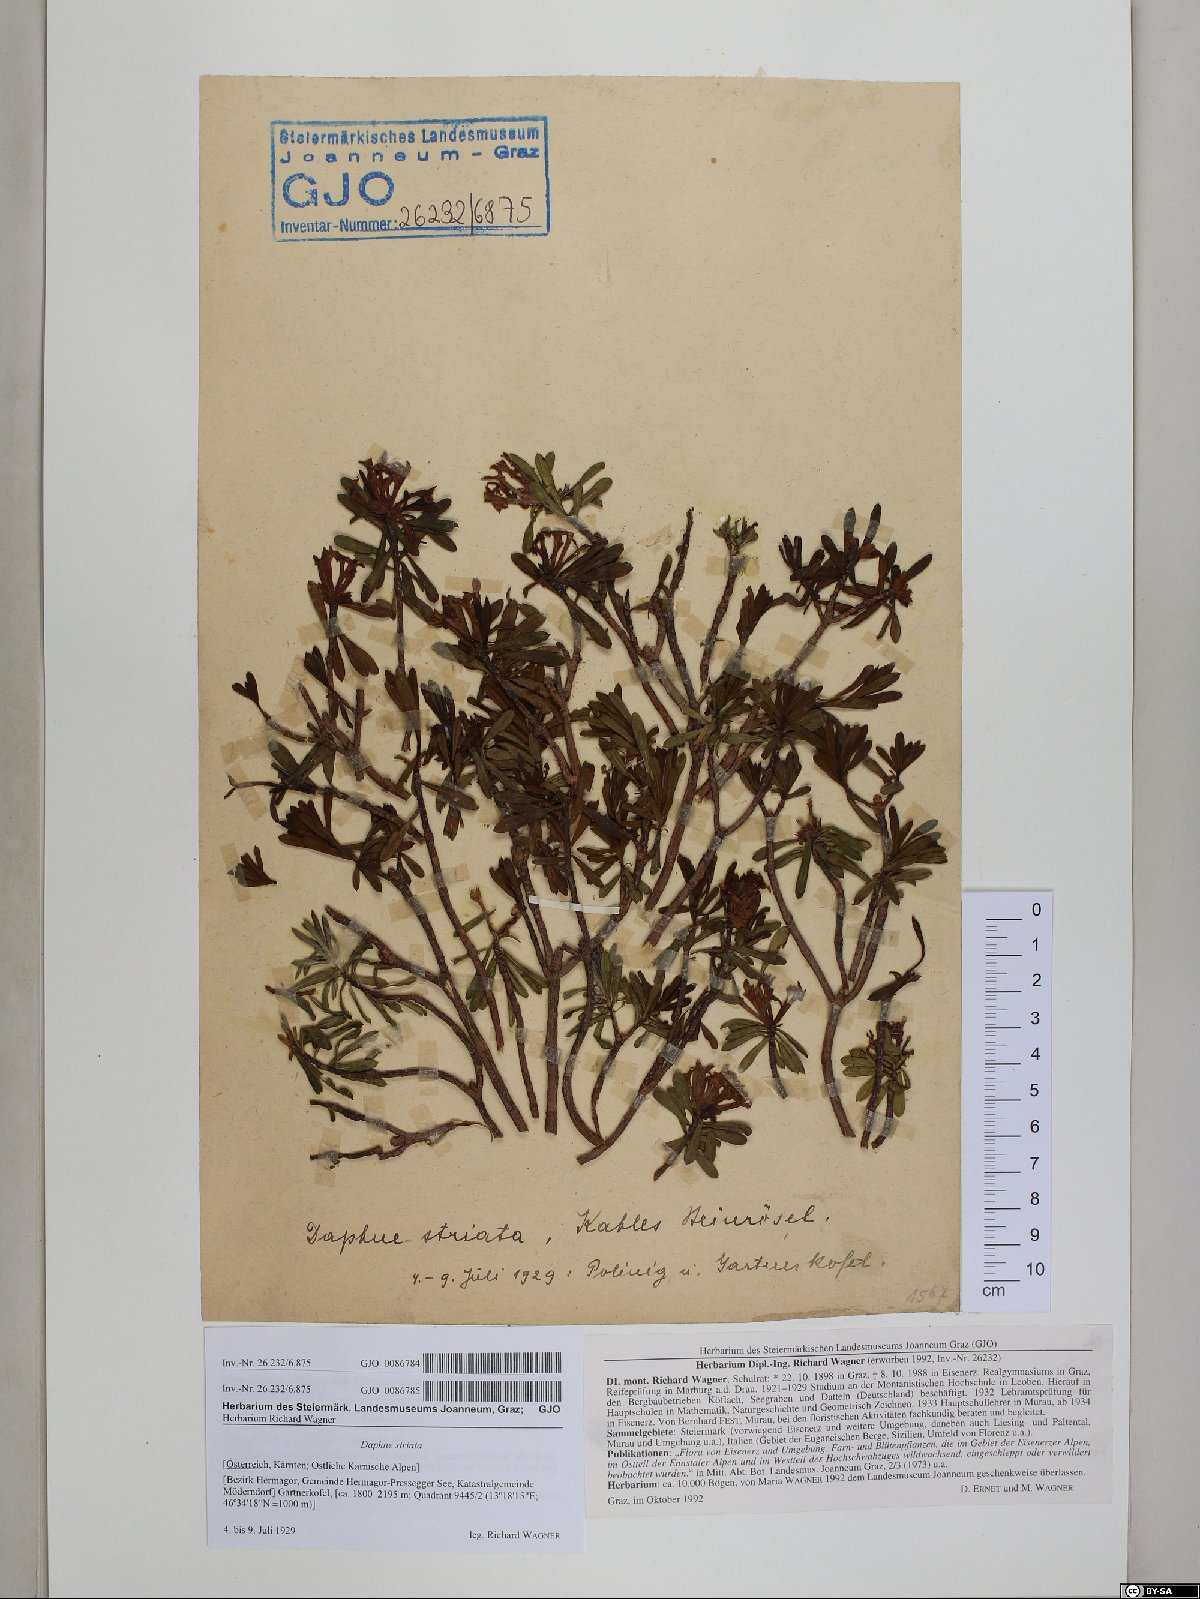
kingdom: Plantae
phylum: Tracheophyta
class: Magnoliopsida
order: Malvales
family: Thymelaeaceae
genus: Daphne
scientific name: Daphne striata
